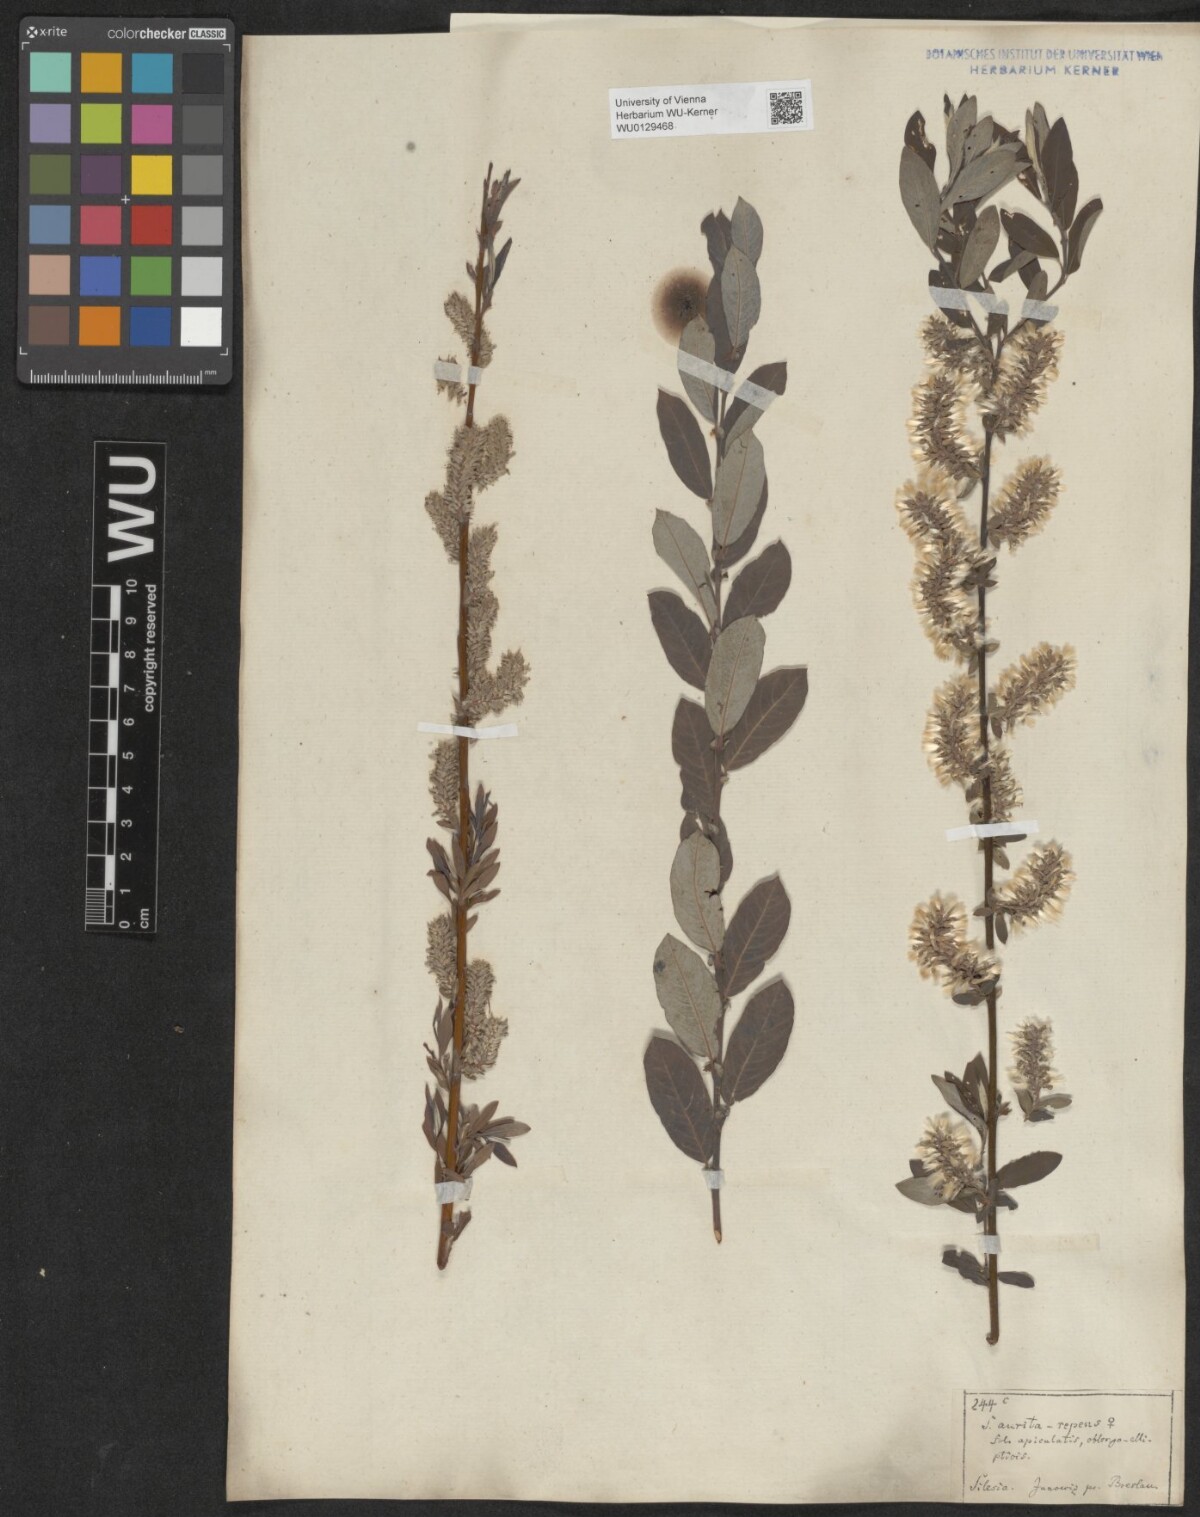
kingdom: Plantae
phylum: Tracheophyta
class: Magnoliopsida
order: Malpighiales
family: Salicaceae
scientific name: Salicaceae
